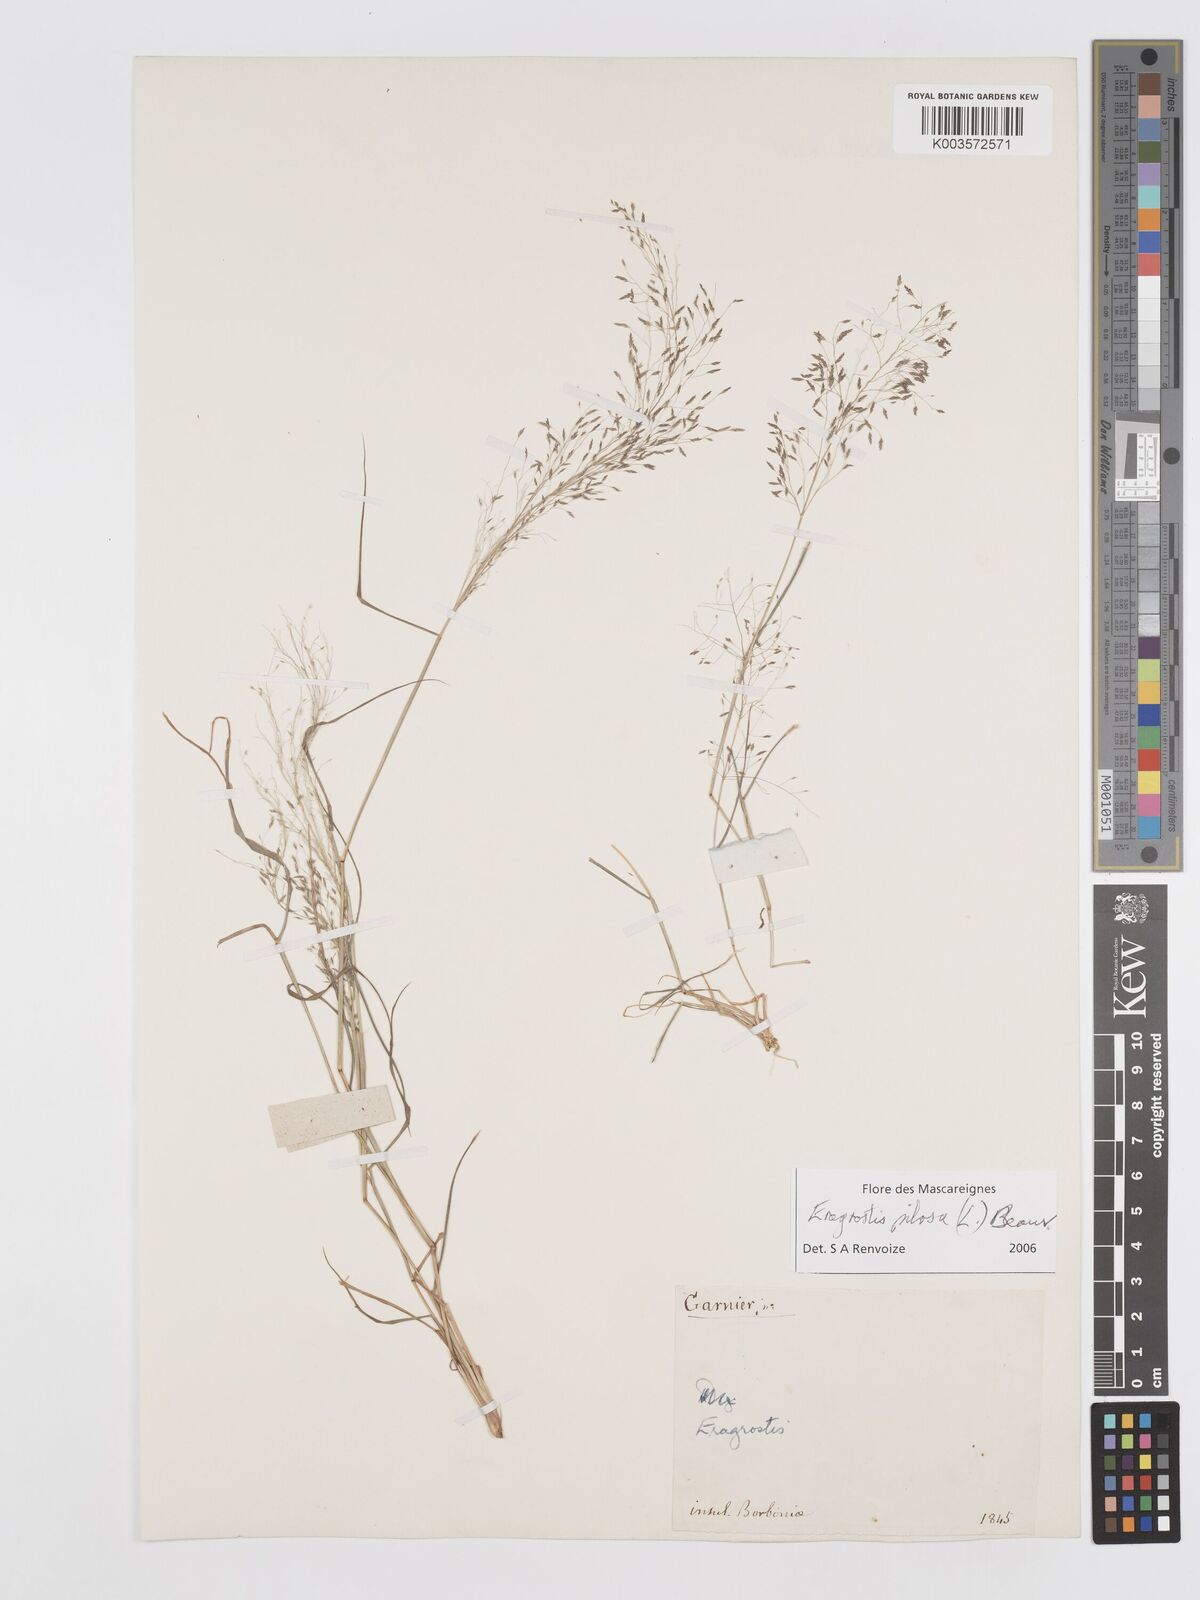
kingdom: Plantae
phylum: Tracheophyta
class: Liliopsida
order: Poales
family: Poaceae
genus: Eragrostis
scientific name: Eragrostis pilosa
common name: Indian lovegrass
